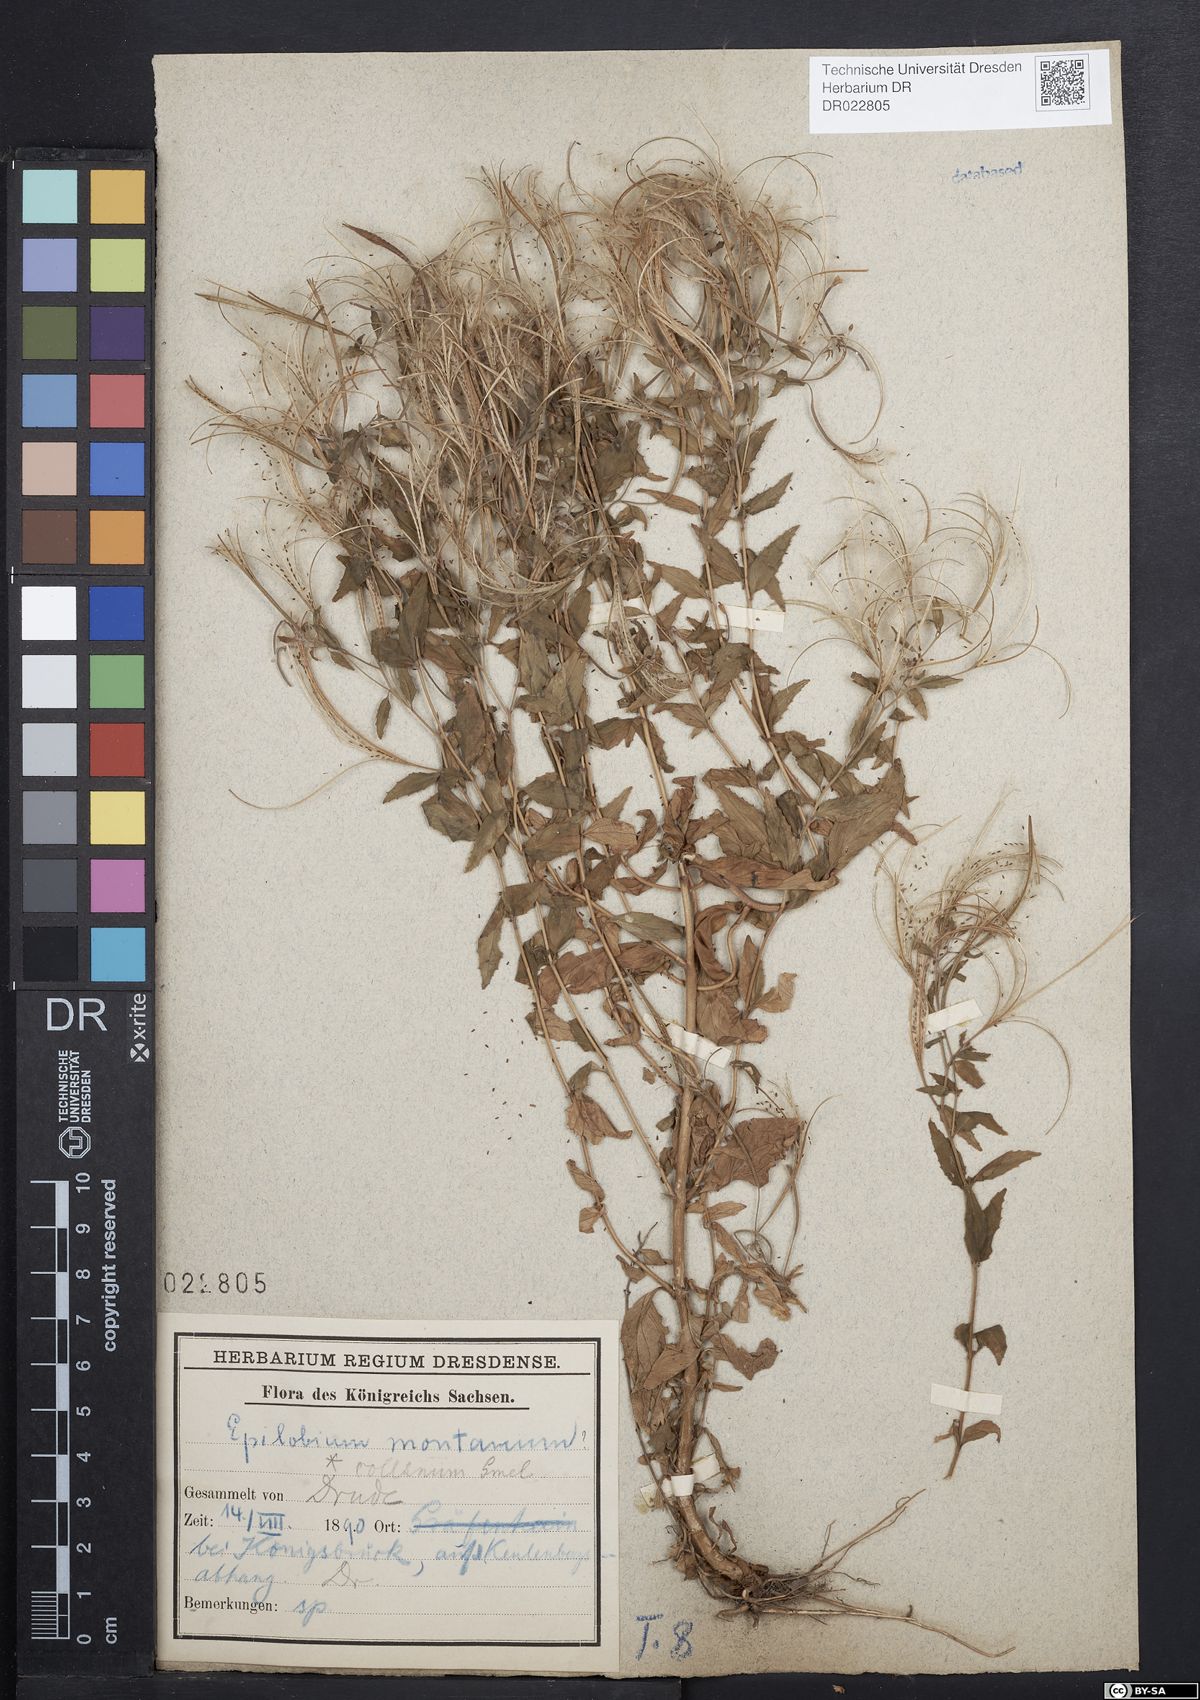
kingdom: Plantae
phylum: Tracheophyta
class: Magnoliopsida
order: Myrtales
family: Onagraceae
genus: Epilobium
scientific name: Epilobium collinum
